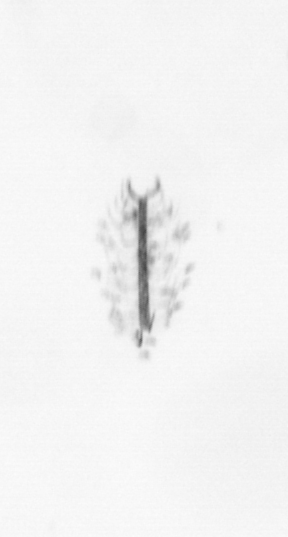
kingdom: Chromista
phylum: Ochrophyta
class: Bacillariophyceae
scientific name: Bacillariophyceae
